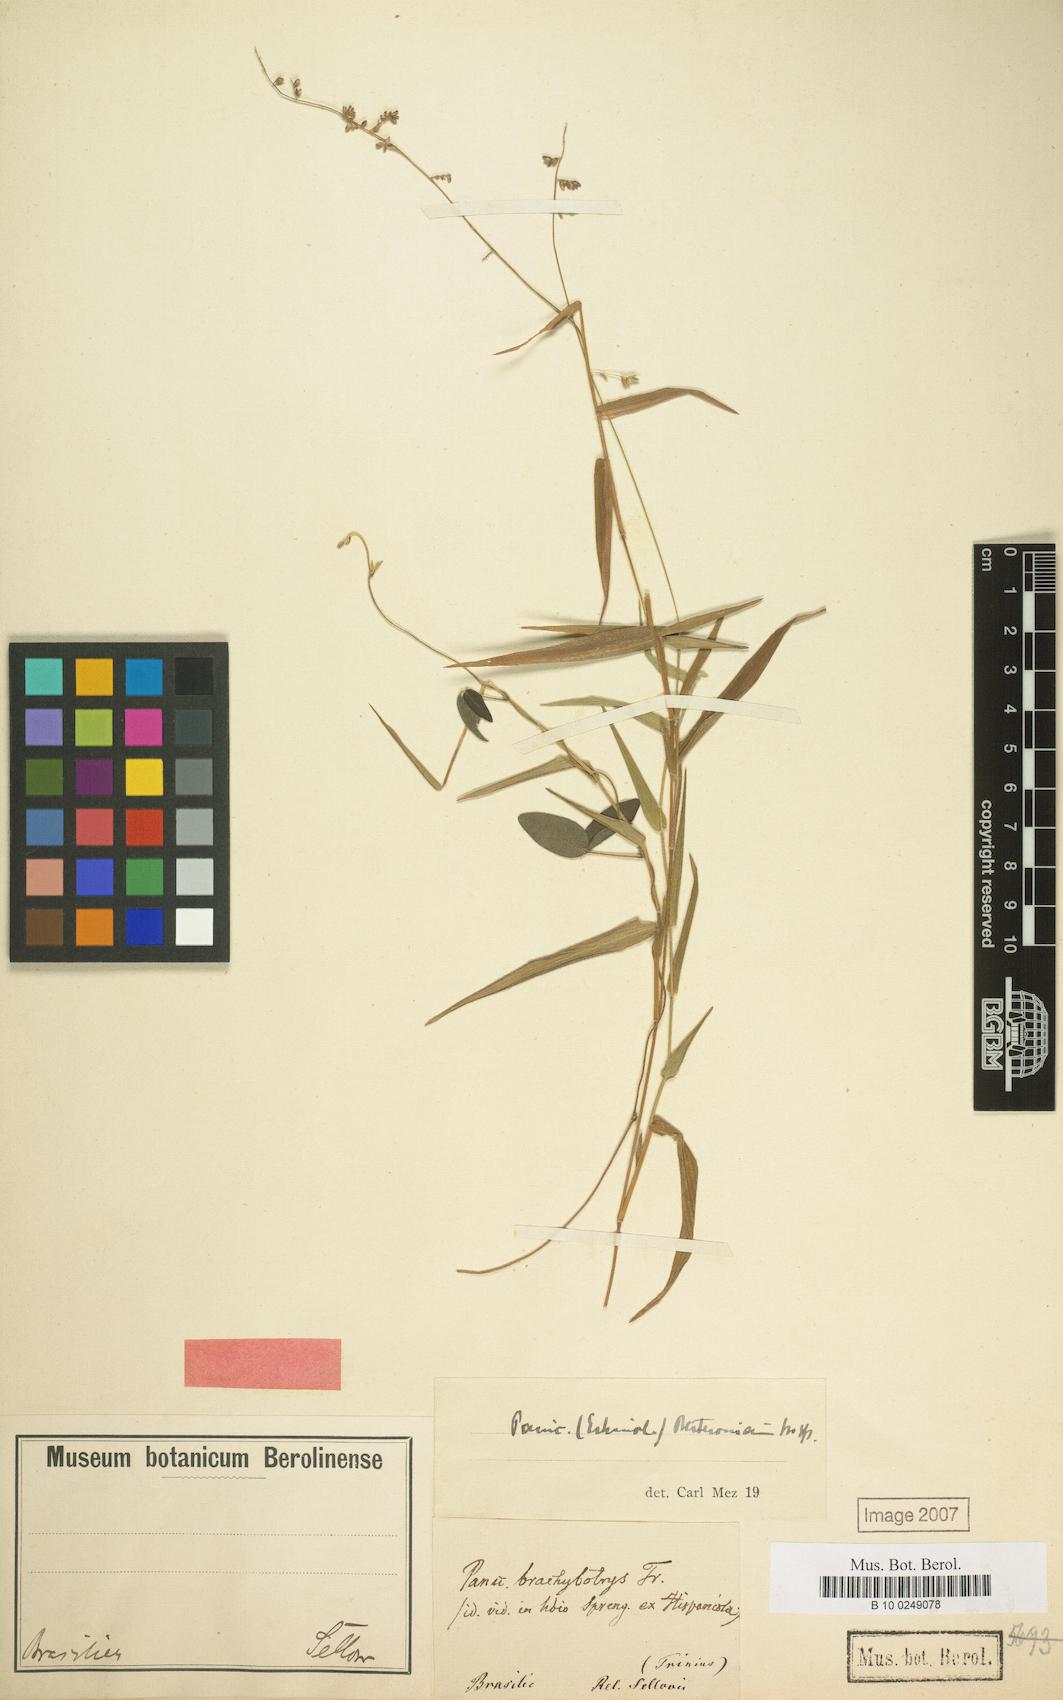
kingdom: Plantae
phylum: Tracheophyta
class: Liliopsida
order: Poales
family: Poaceae
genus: Setaria
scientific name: Setaria parviflora
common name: Knotroot bristle-grass
